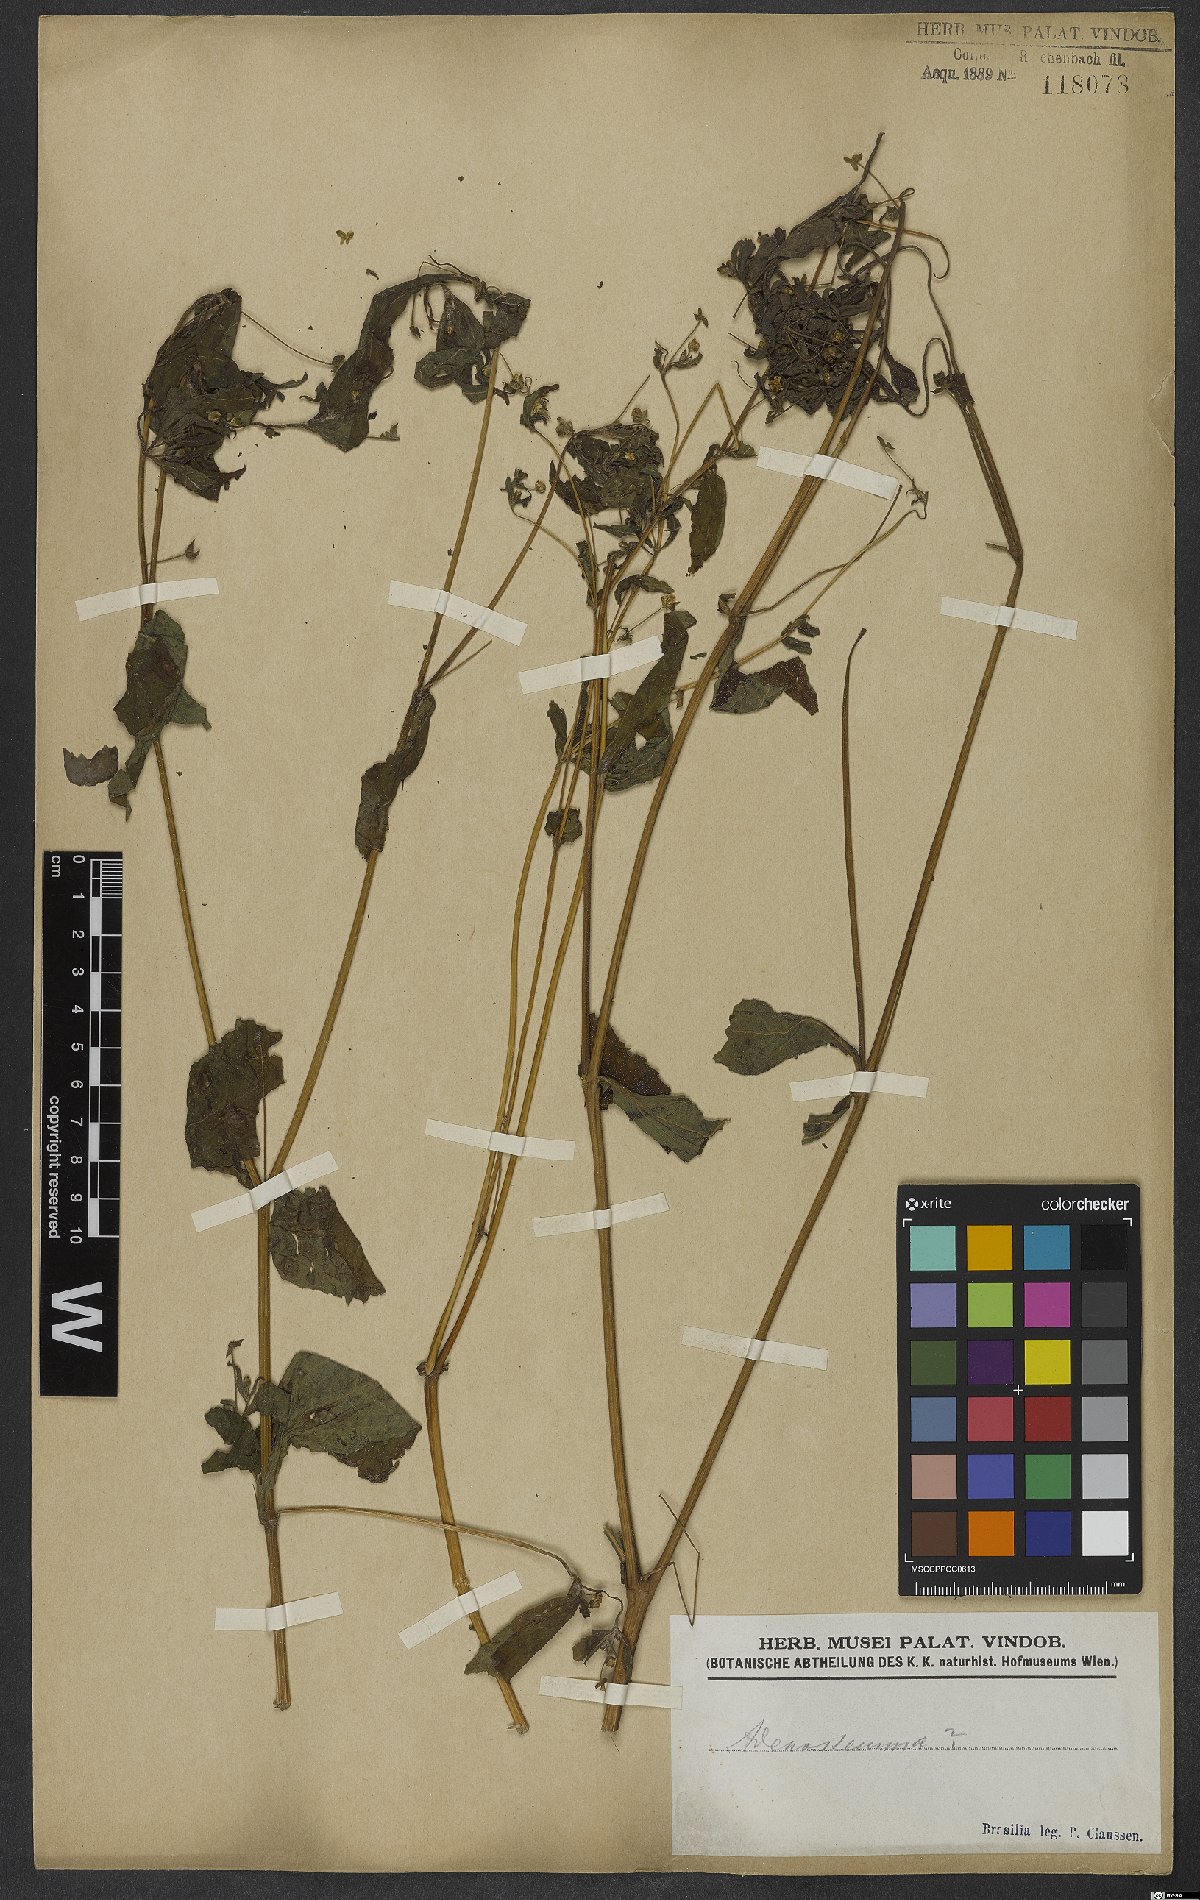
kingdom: Plantae
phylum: Tracheophyta
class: Magnoliopsida
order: Asterales
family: Asteraceae
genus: Adenostemma
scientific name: Adenostemma
